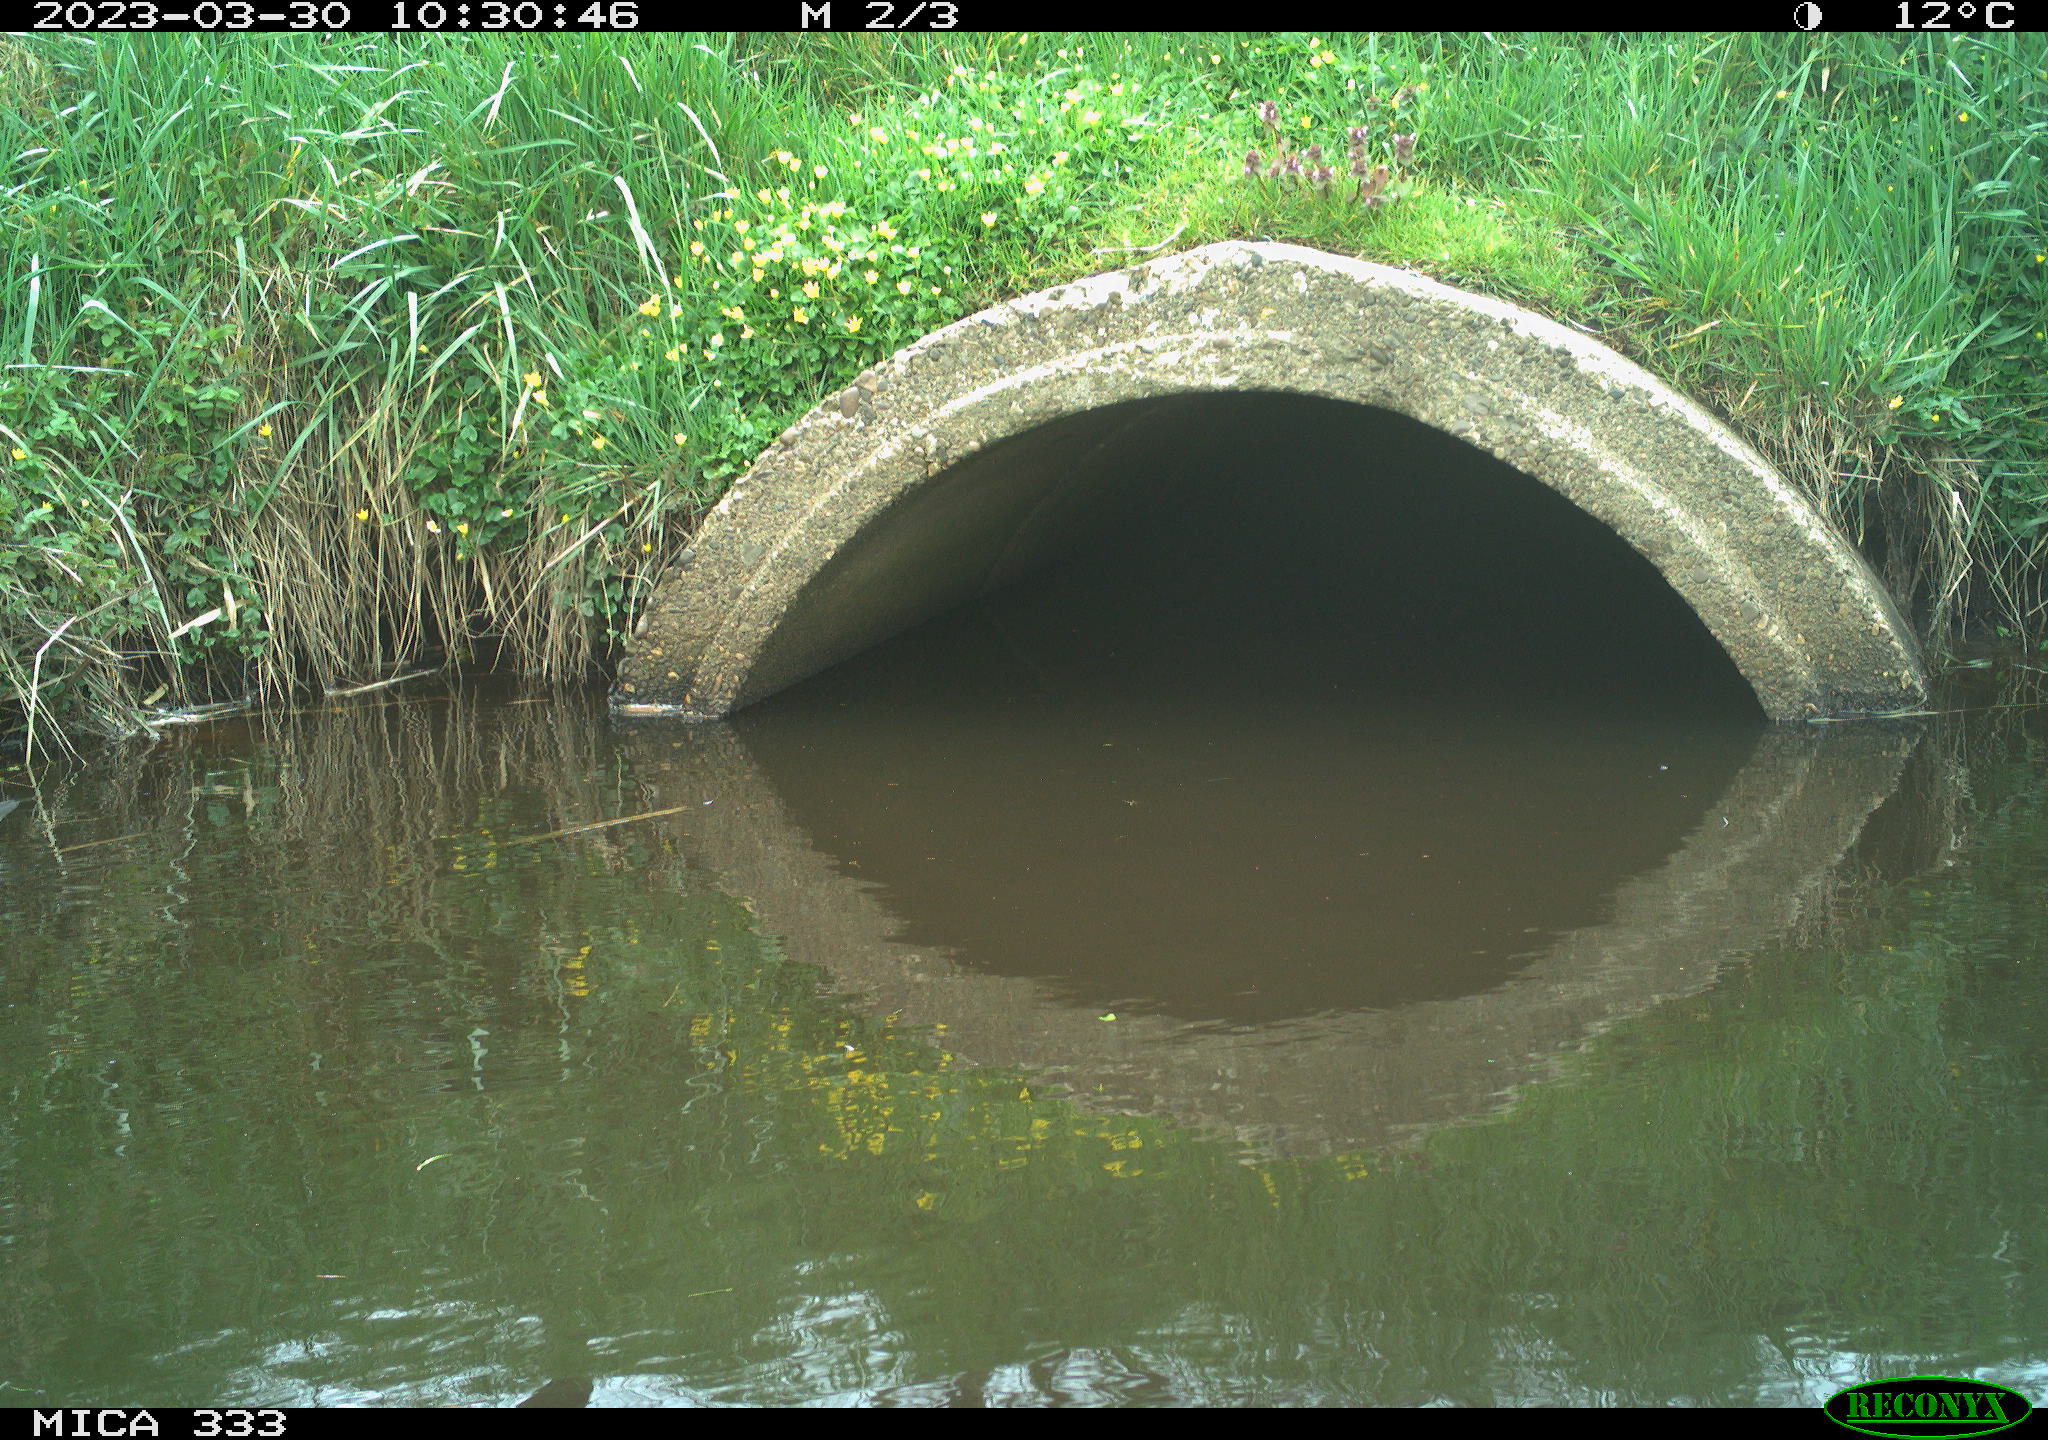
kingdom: Animalia
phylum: Chordata
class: Aves
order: Gruiformes
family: Rallidae
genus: Gallinula
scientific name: Gallinula chloropus
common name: Common moorhen
